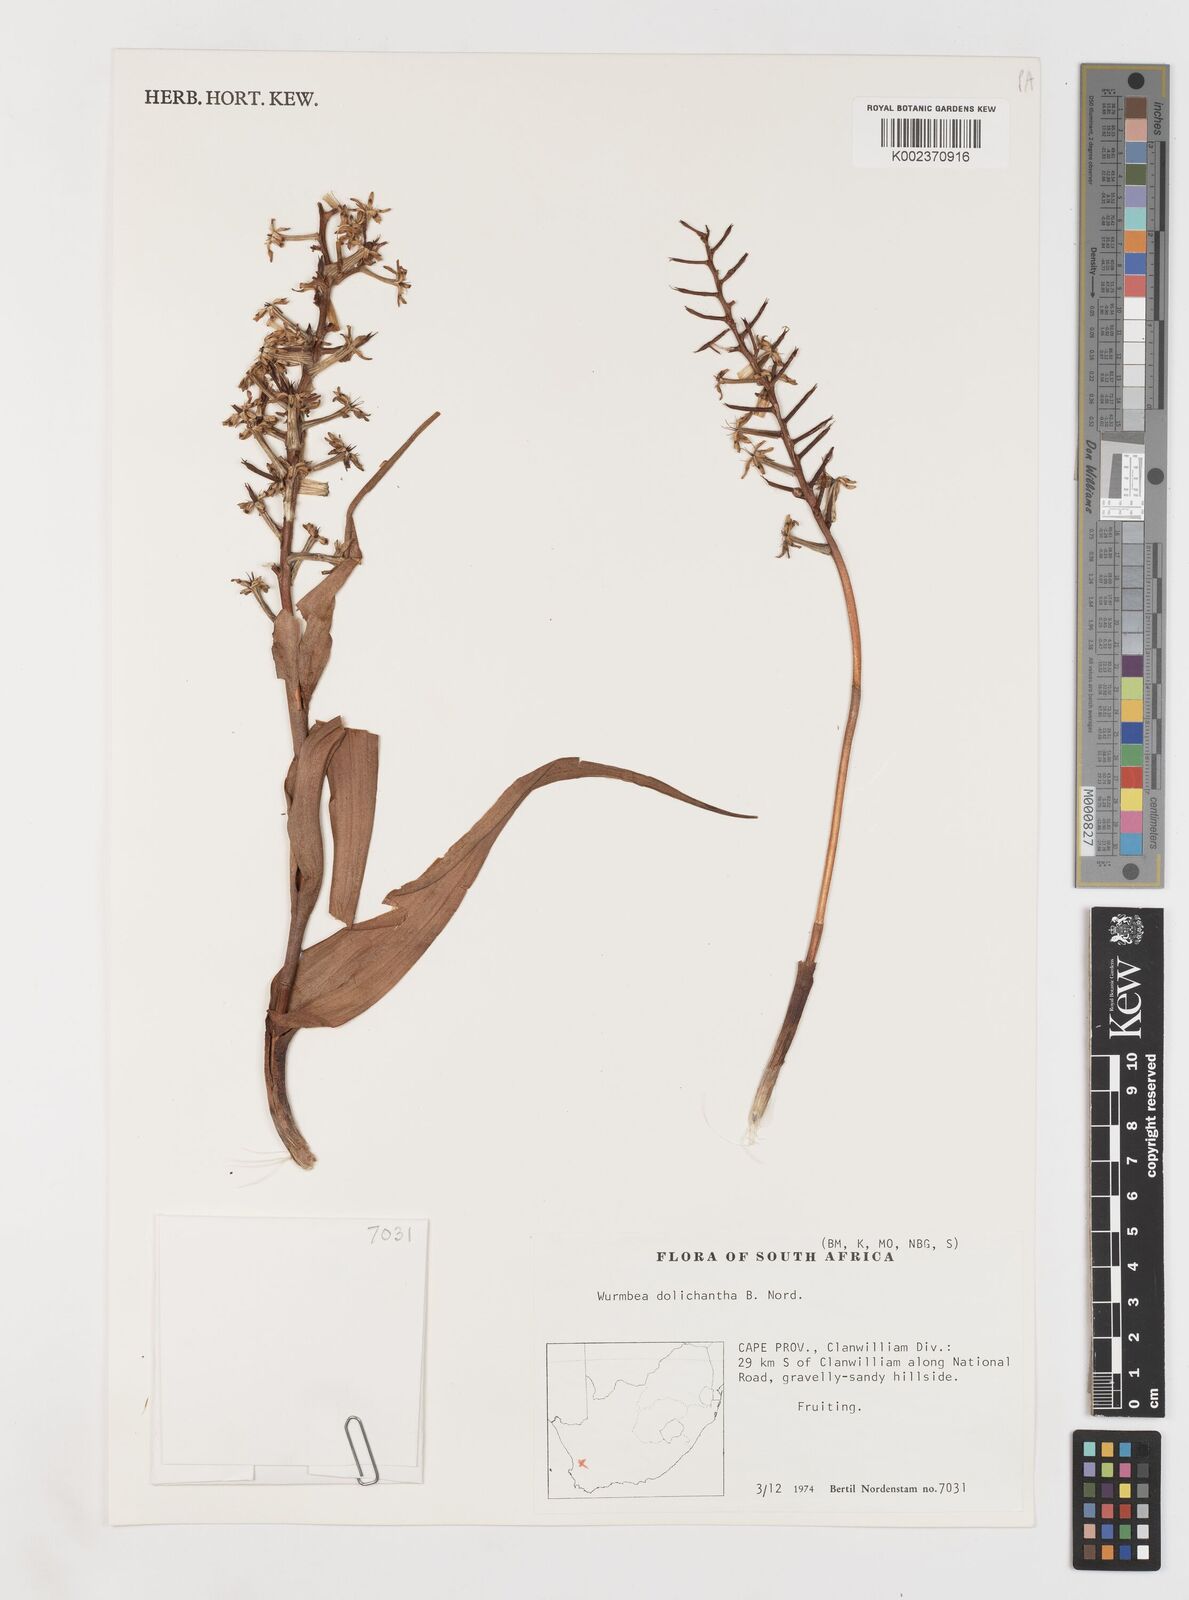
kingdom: Plantae
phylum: Tracheophyta
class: Liliopsida
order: Liliales
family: Colchicaceae
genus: Wurmbea
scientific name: Wurmbea dolichantha
